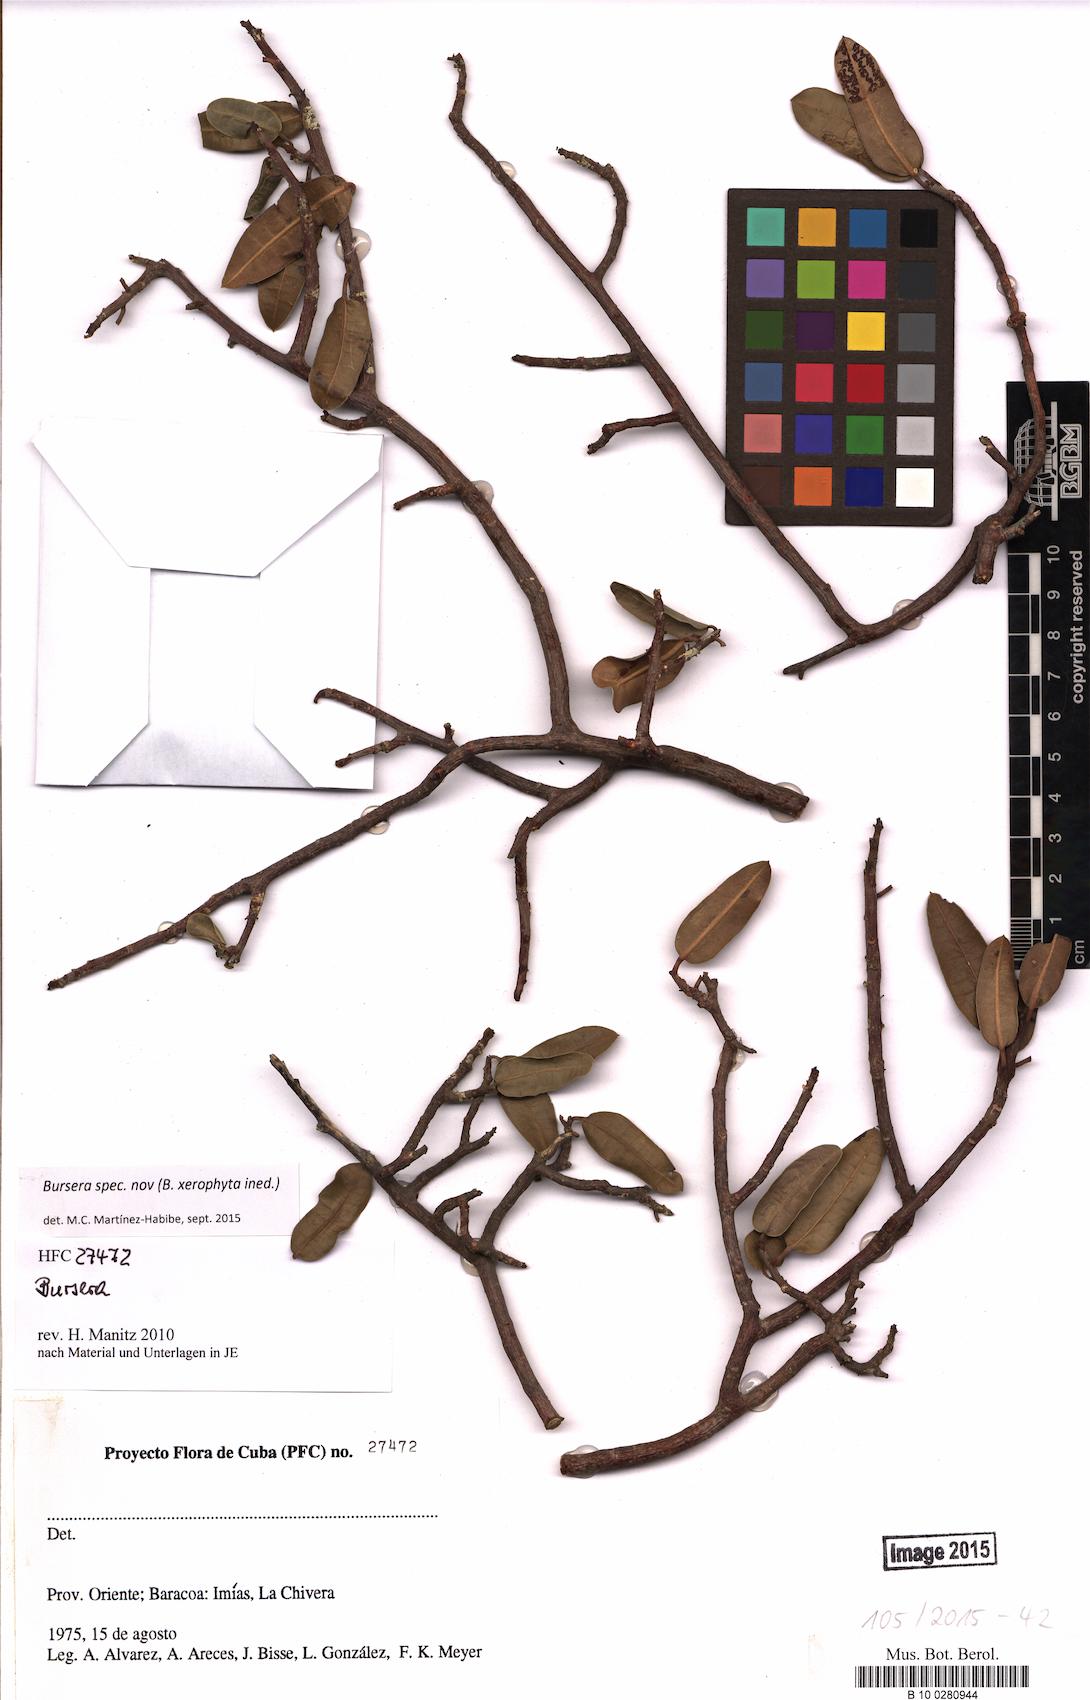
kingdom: Plantae
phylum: Tracheophyta
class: Magnoliopsida
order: Sapindales
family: Burseraceae
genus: Bursera
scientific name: Bursera
